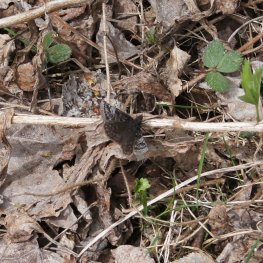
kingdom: Animalia
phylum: Arthropoda
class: Insecta
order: Lepidoptera
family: Hesperiidae
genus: Erynnis
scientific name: Erynnis icelus
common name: Dreamy Duskywing
